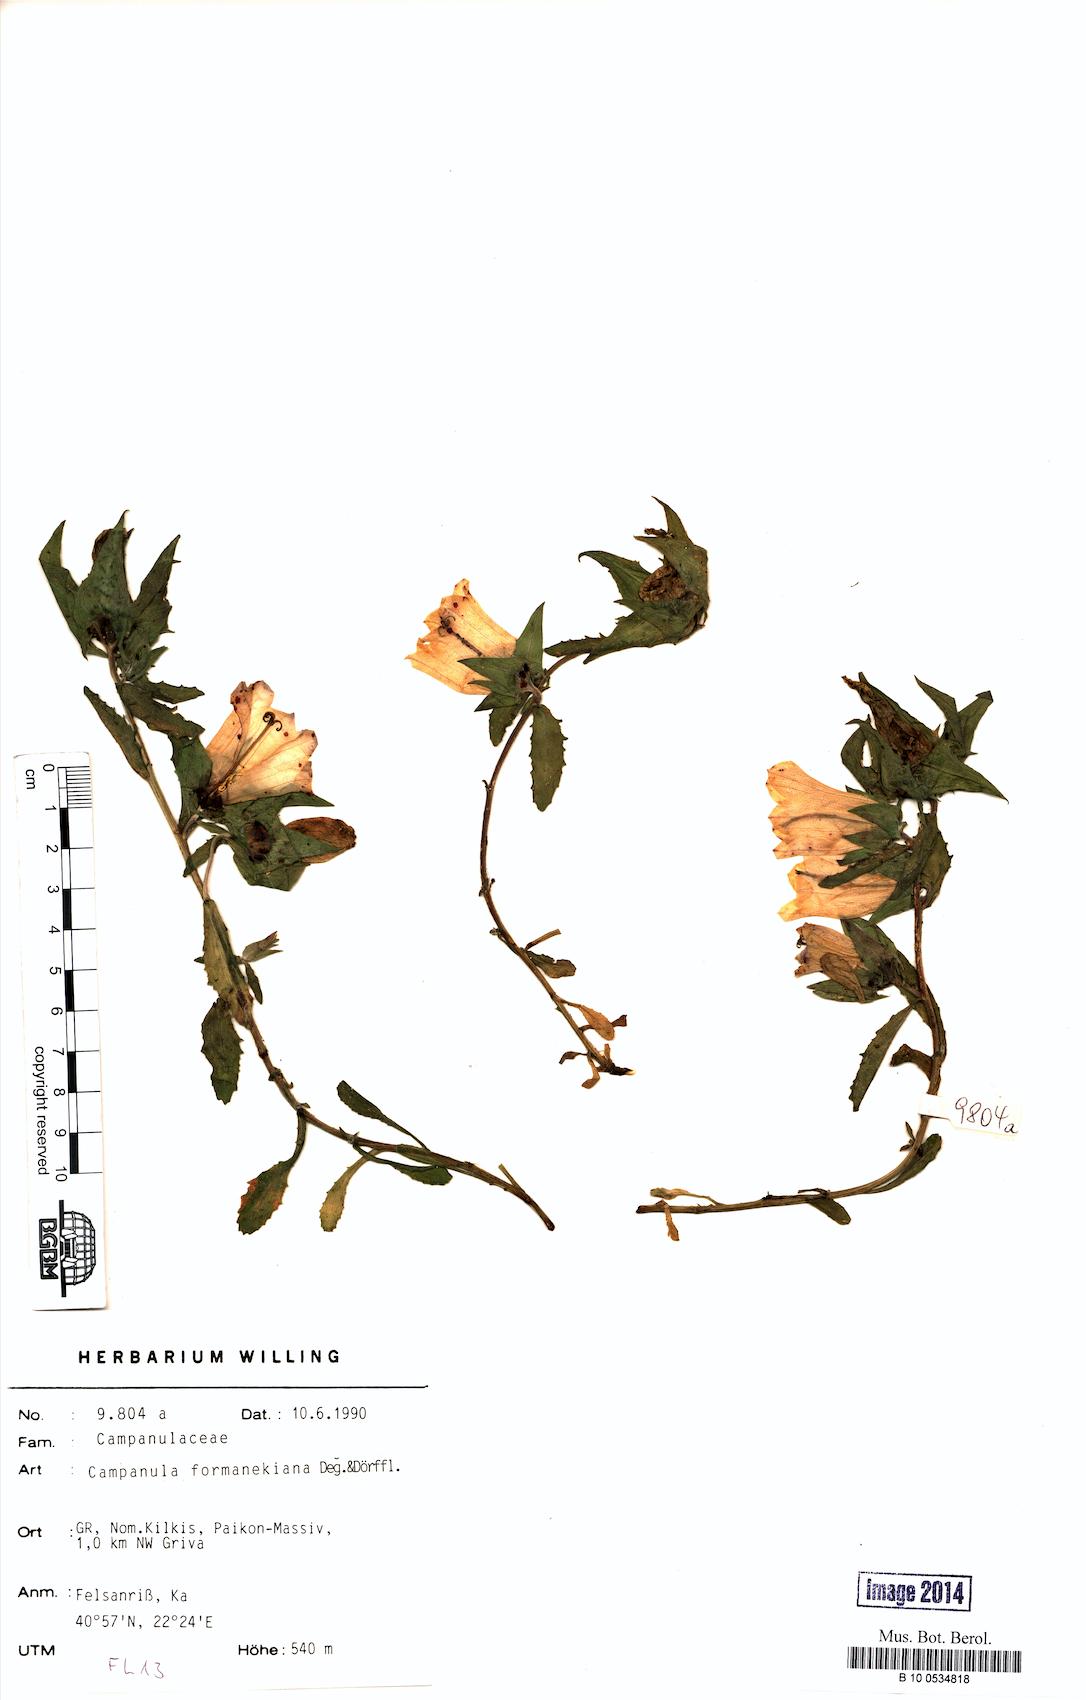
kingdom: Plantae
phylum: Tracheophyta
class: Magnoliopsida
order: Asterales
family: Campanulaceae
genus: Campanula
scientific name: Campanula formanekiana
